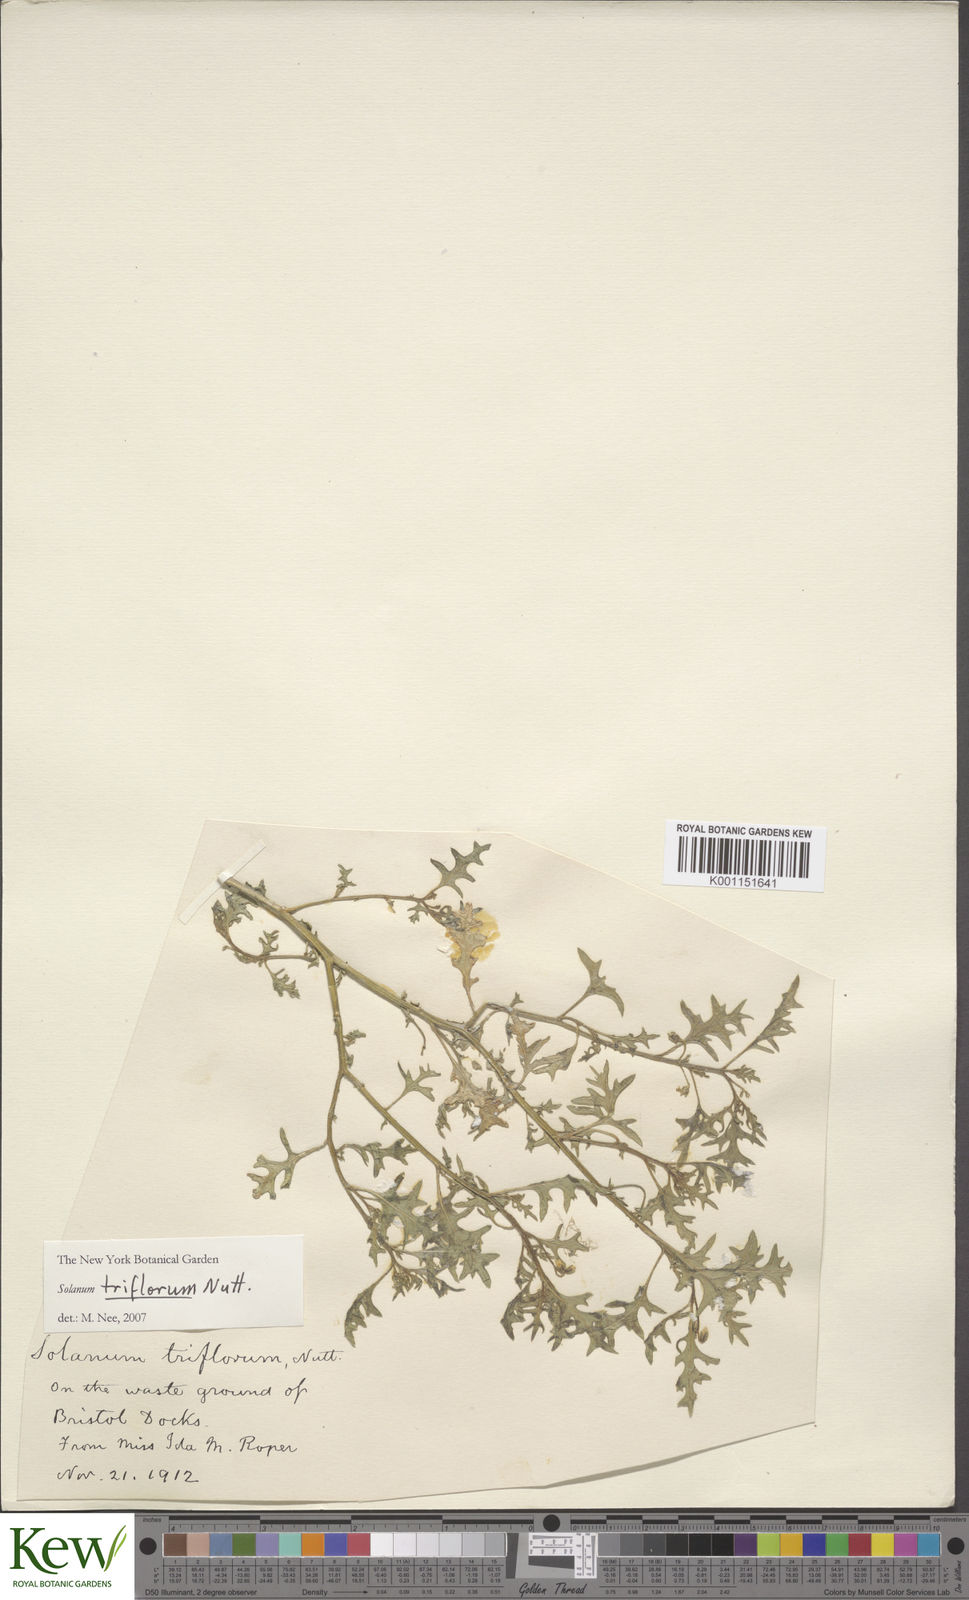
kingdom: Plantae
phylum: Tracheophyta
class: Magnoliopsida
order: Solanales
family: Solanaceae
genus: Solanum
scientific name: Solanum triflorum
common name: Small nightshade
